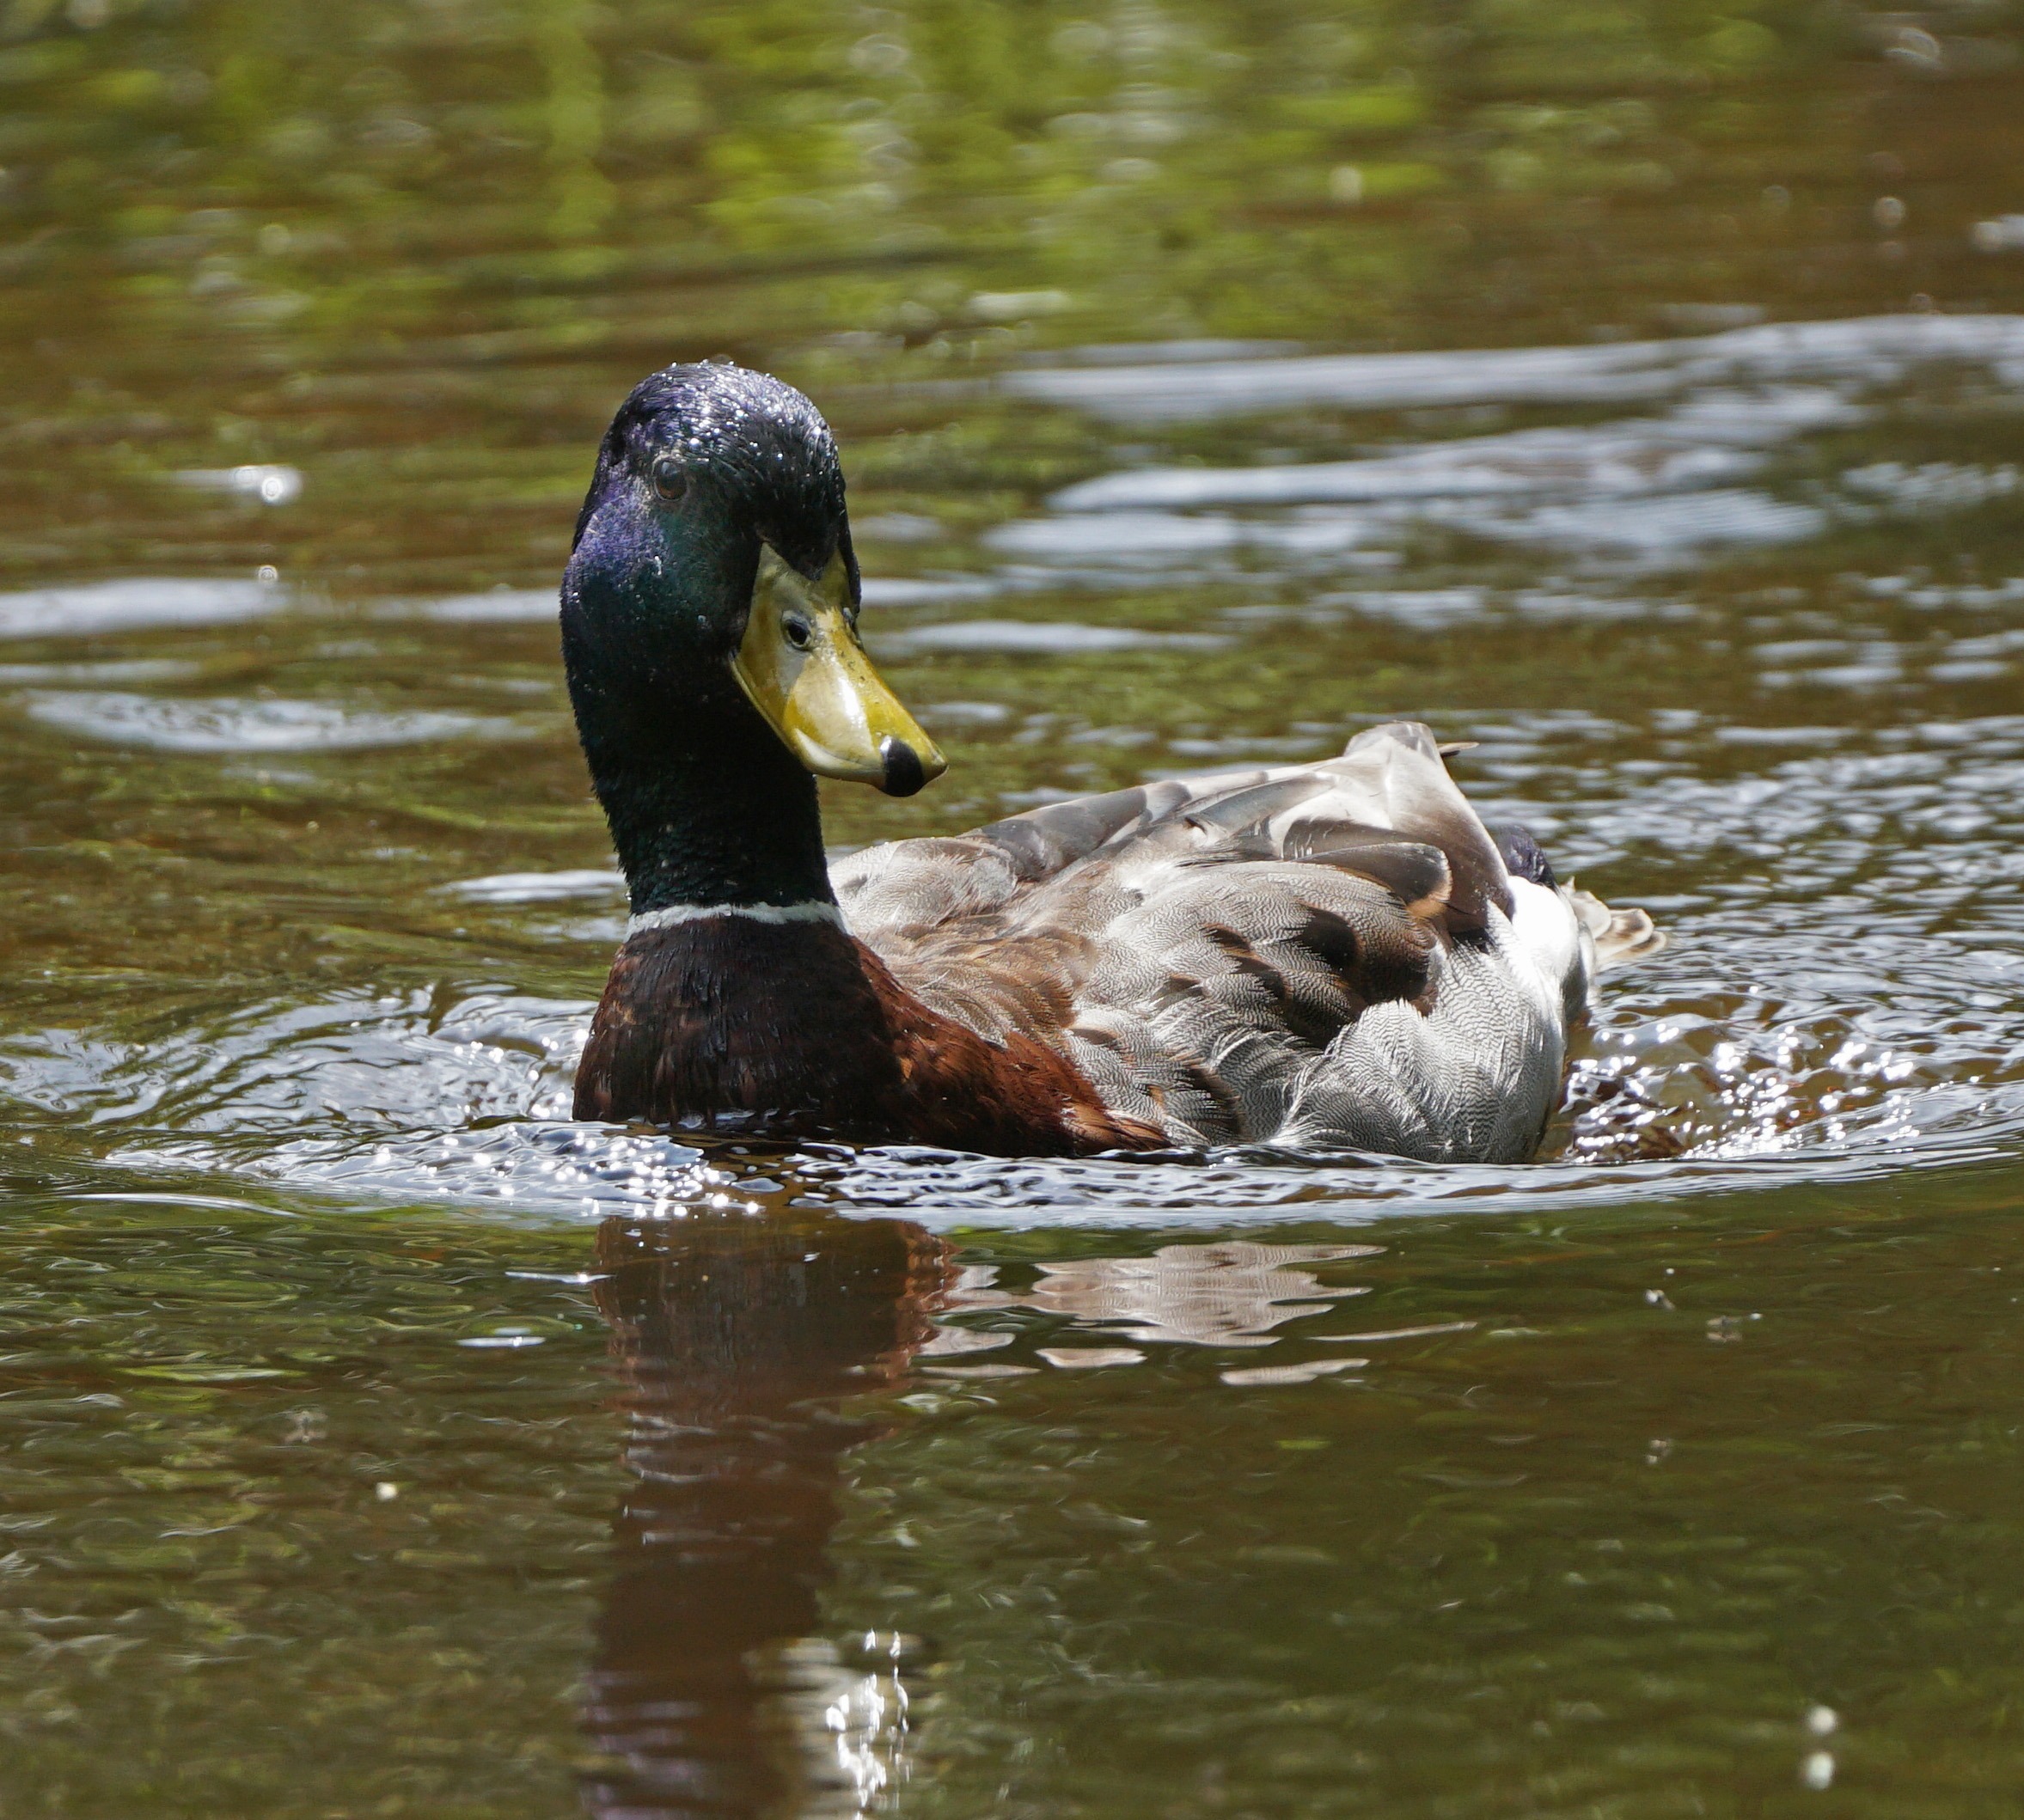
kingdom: Animalia
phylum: Chordata
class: Aves
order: Anseriformes
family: Anatidae
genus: Anas
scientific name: Anas platyrhynchos
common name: Gråand
